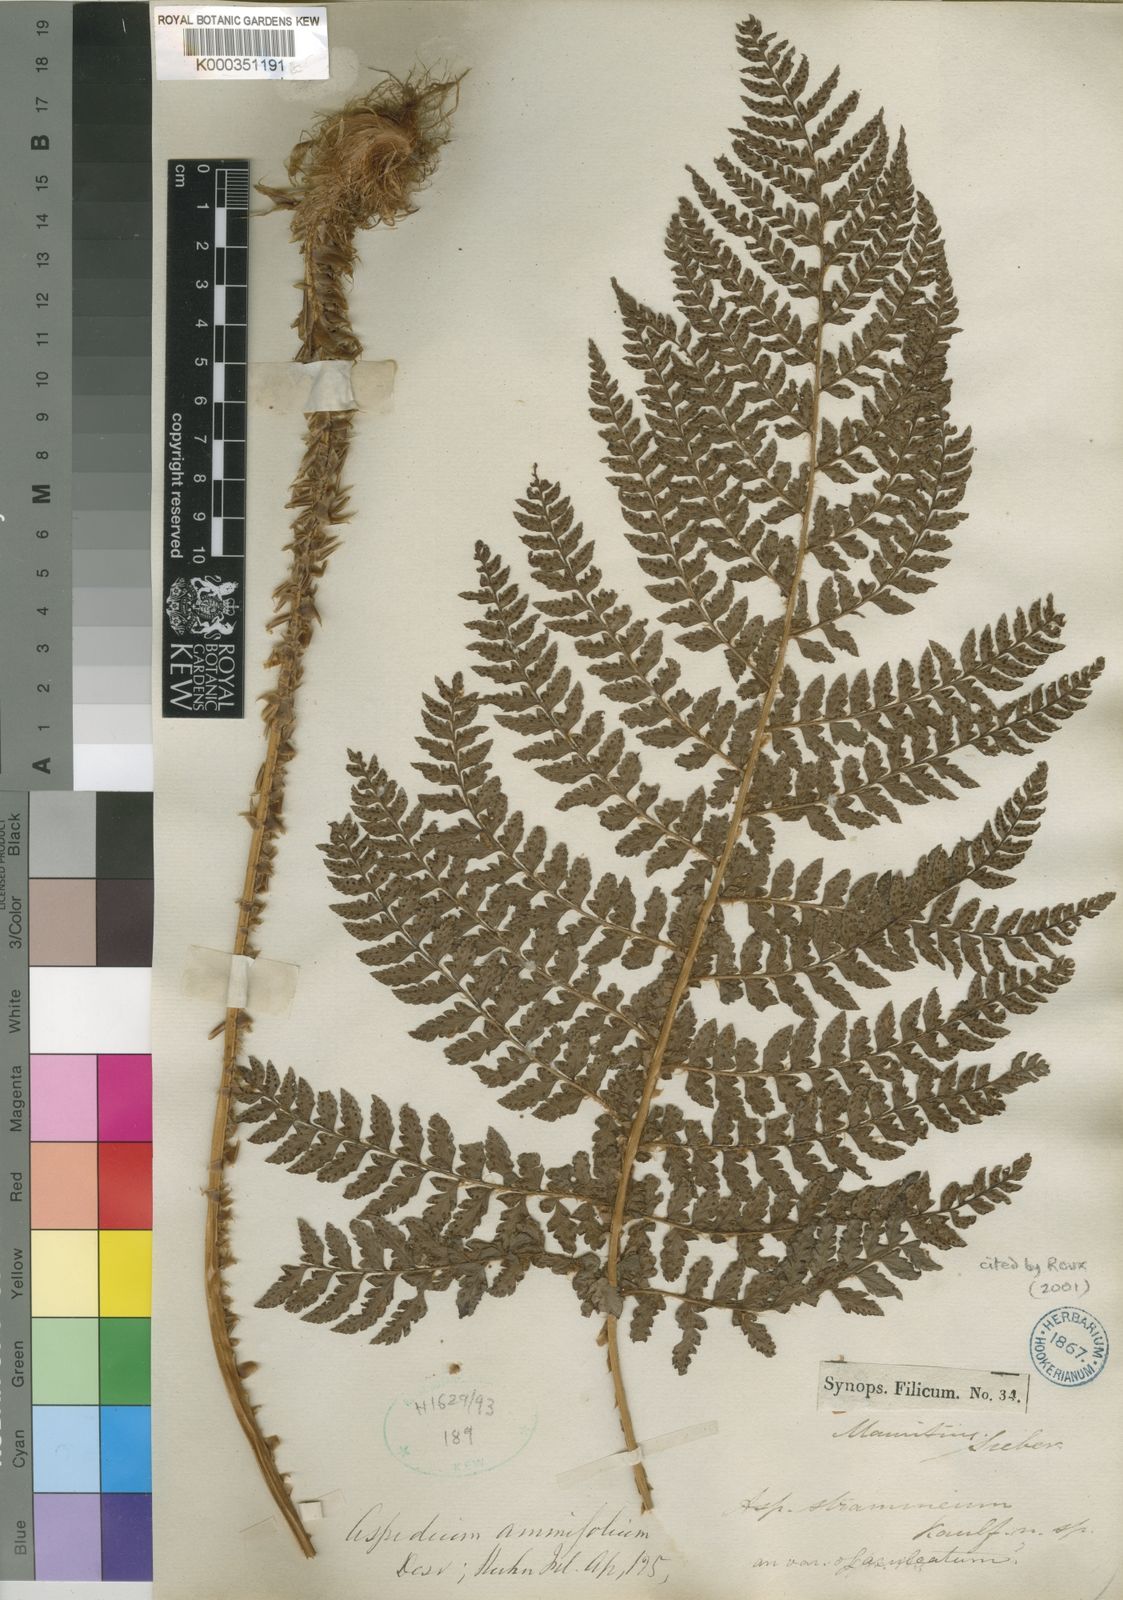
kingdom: Plantae
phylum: Tracheophyta
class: Polypodiopsida
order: Polypodiales
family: Dryopteridaceae
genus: Polystichum
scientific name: Polystichum ammifolium
